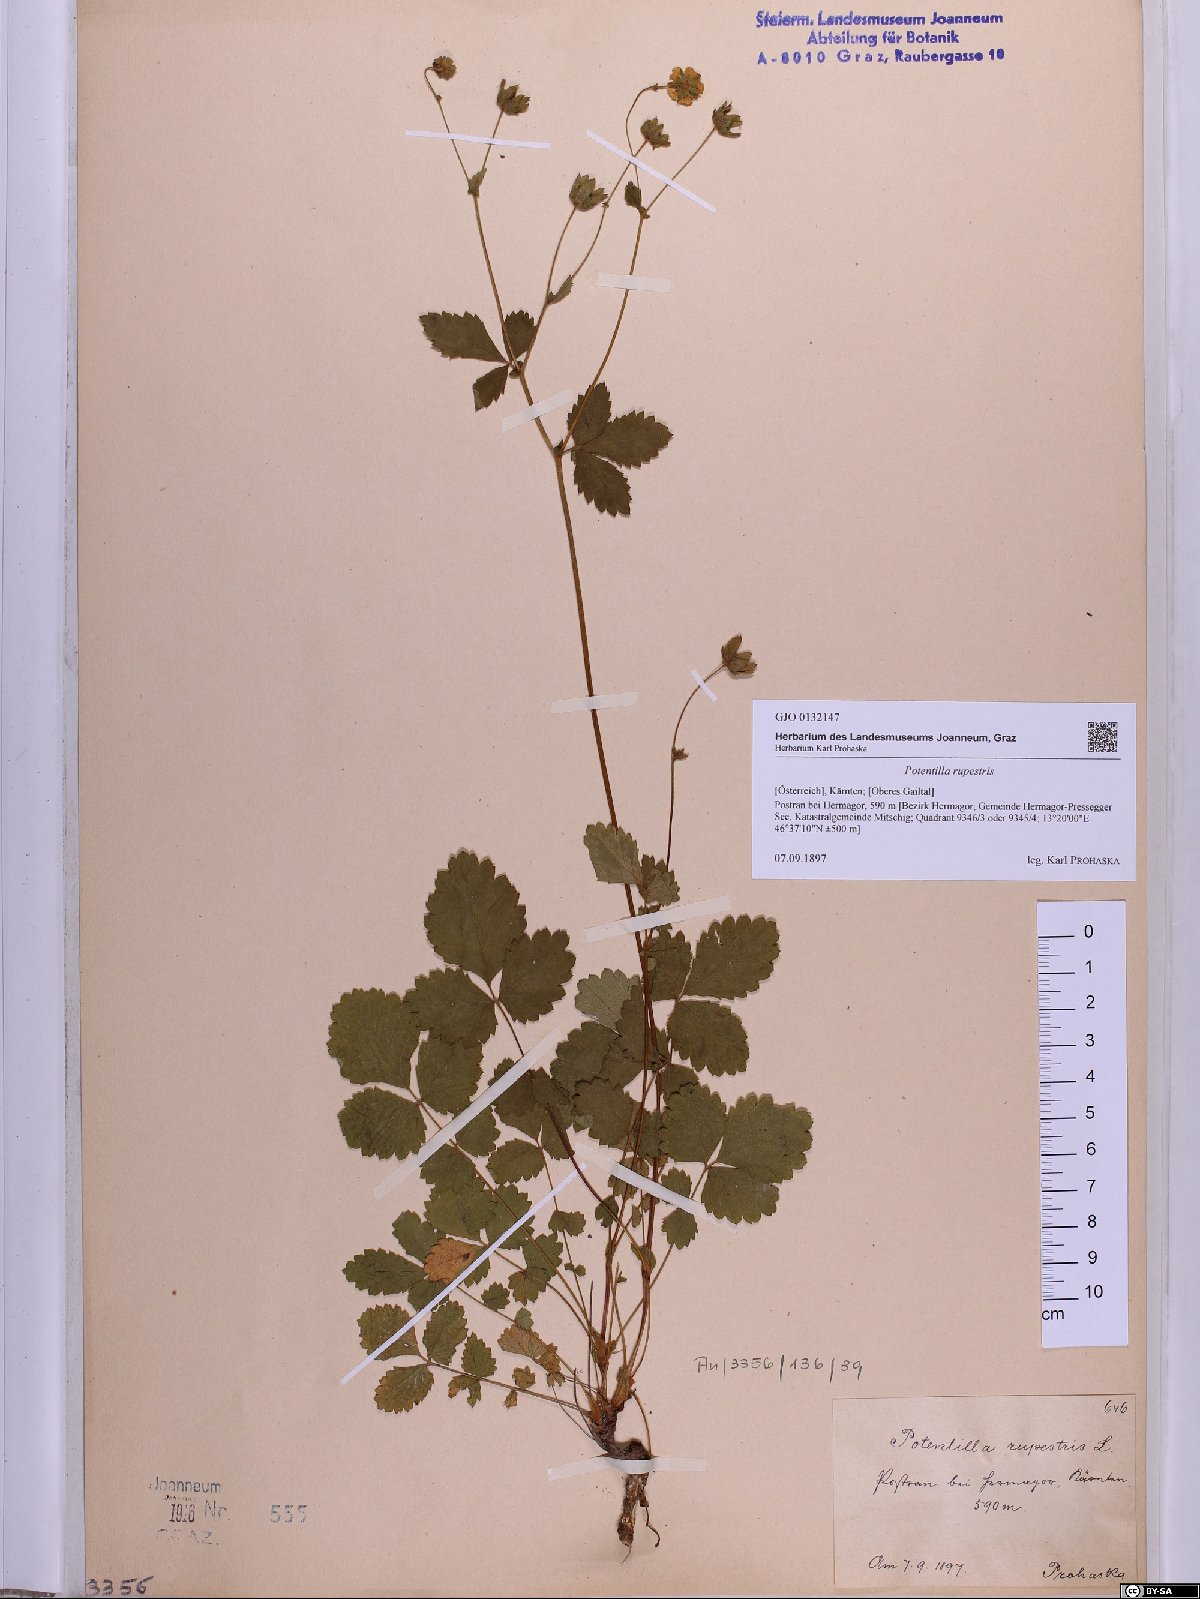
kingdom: Plantae
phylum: Tracheophyta
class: Magnoliopsida
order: Rosales
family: Rosaceae
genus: Drymocallis
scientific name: Drymocallis rupestris
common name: Rock cinquefoil
